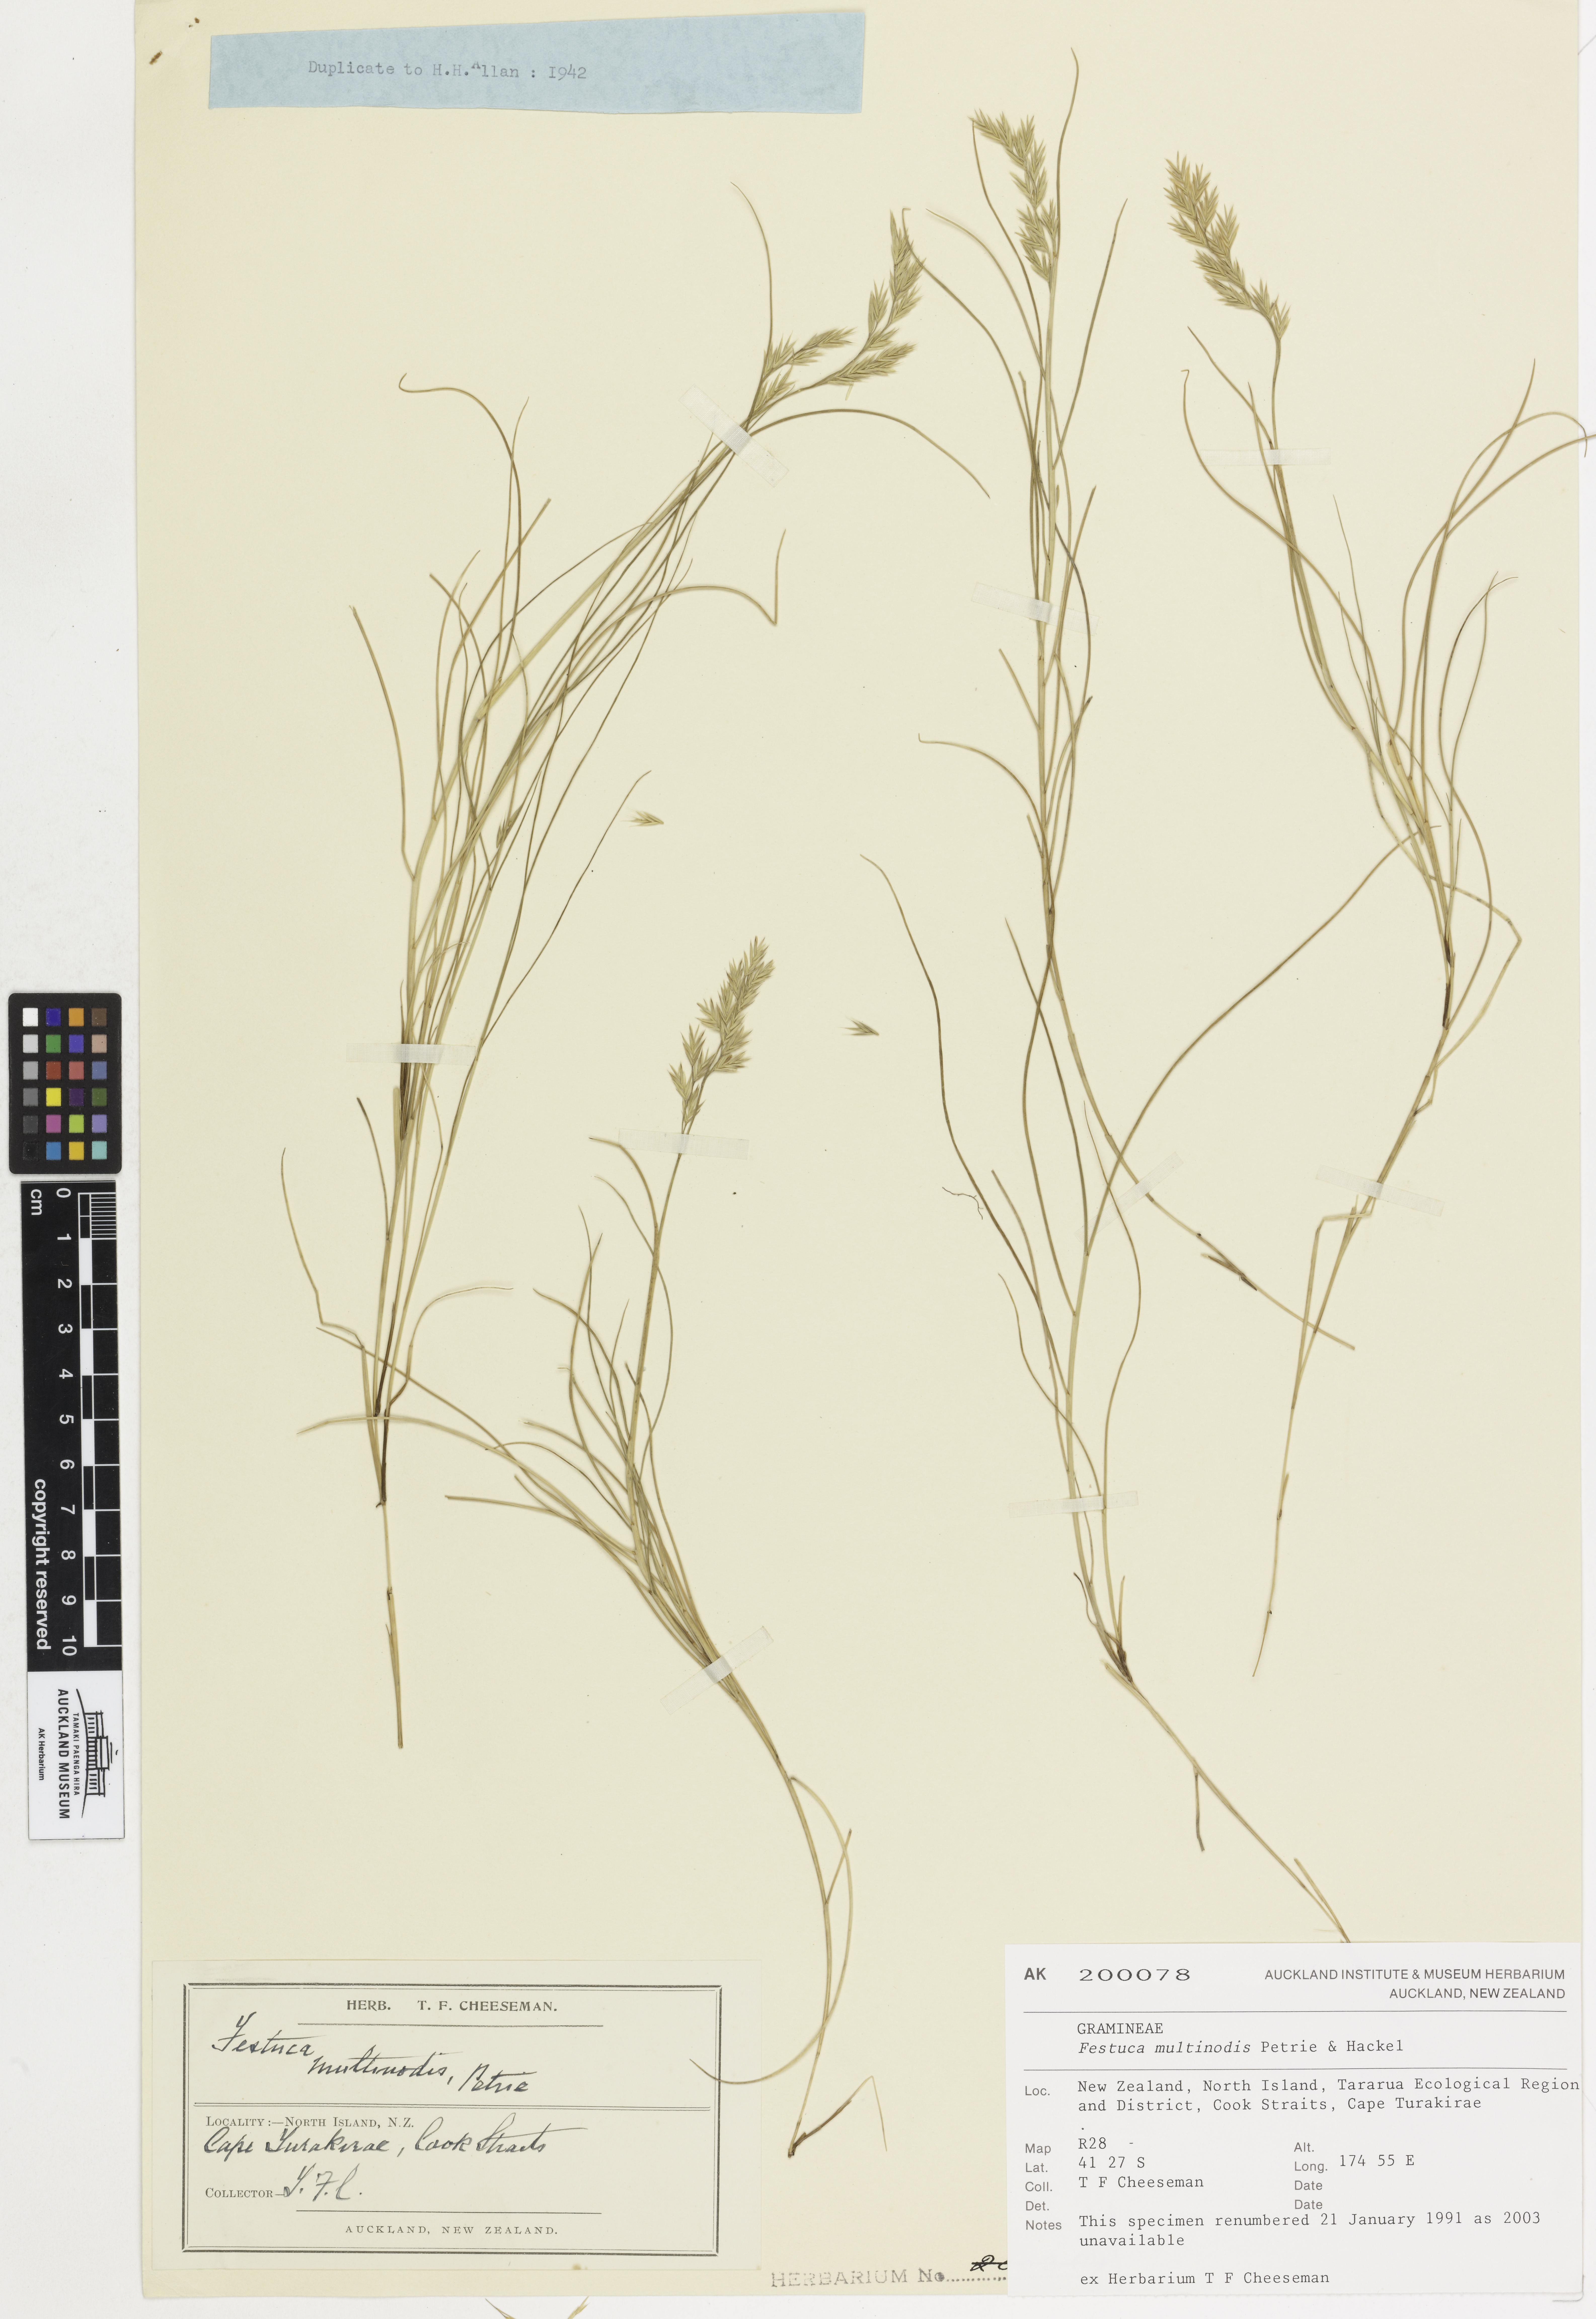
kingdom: Plantae
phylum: Tracheophyta
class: Liliopsida
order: Poales
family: Poaceae
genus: Festuca
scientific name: Festuca multinodis
